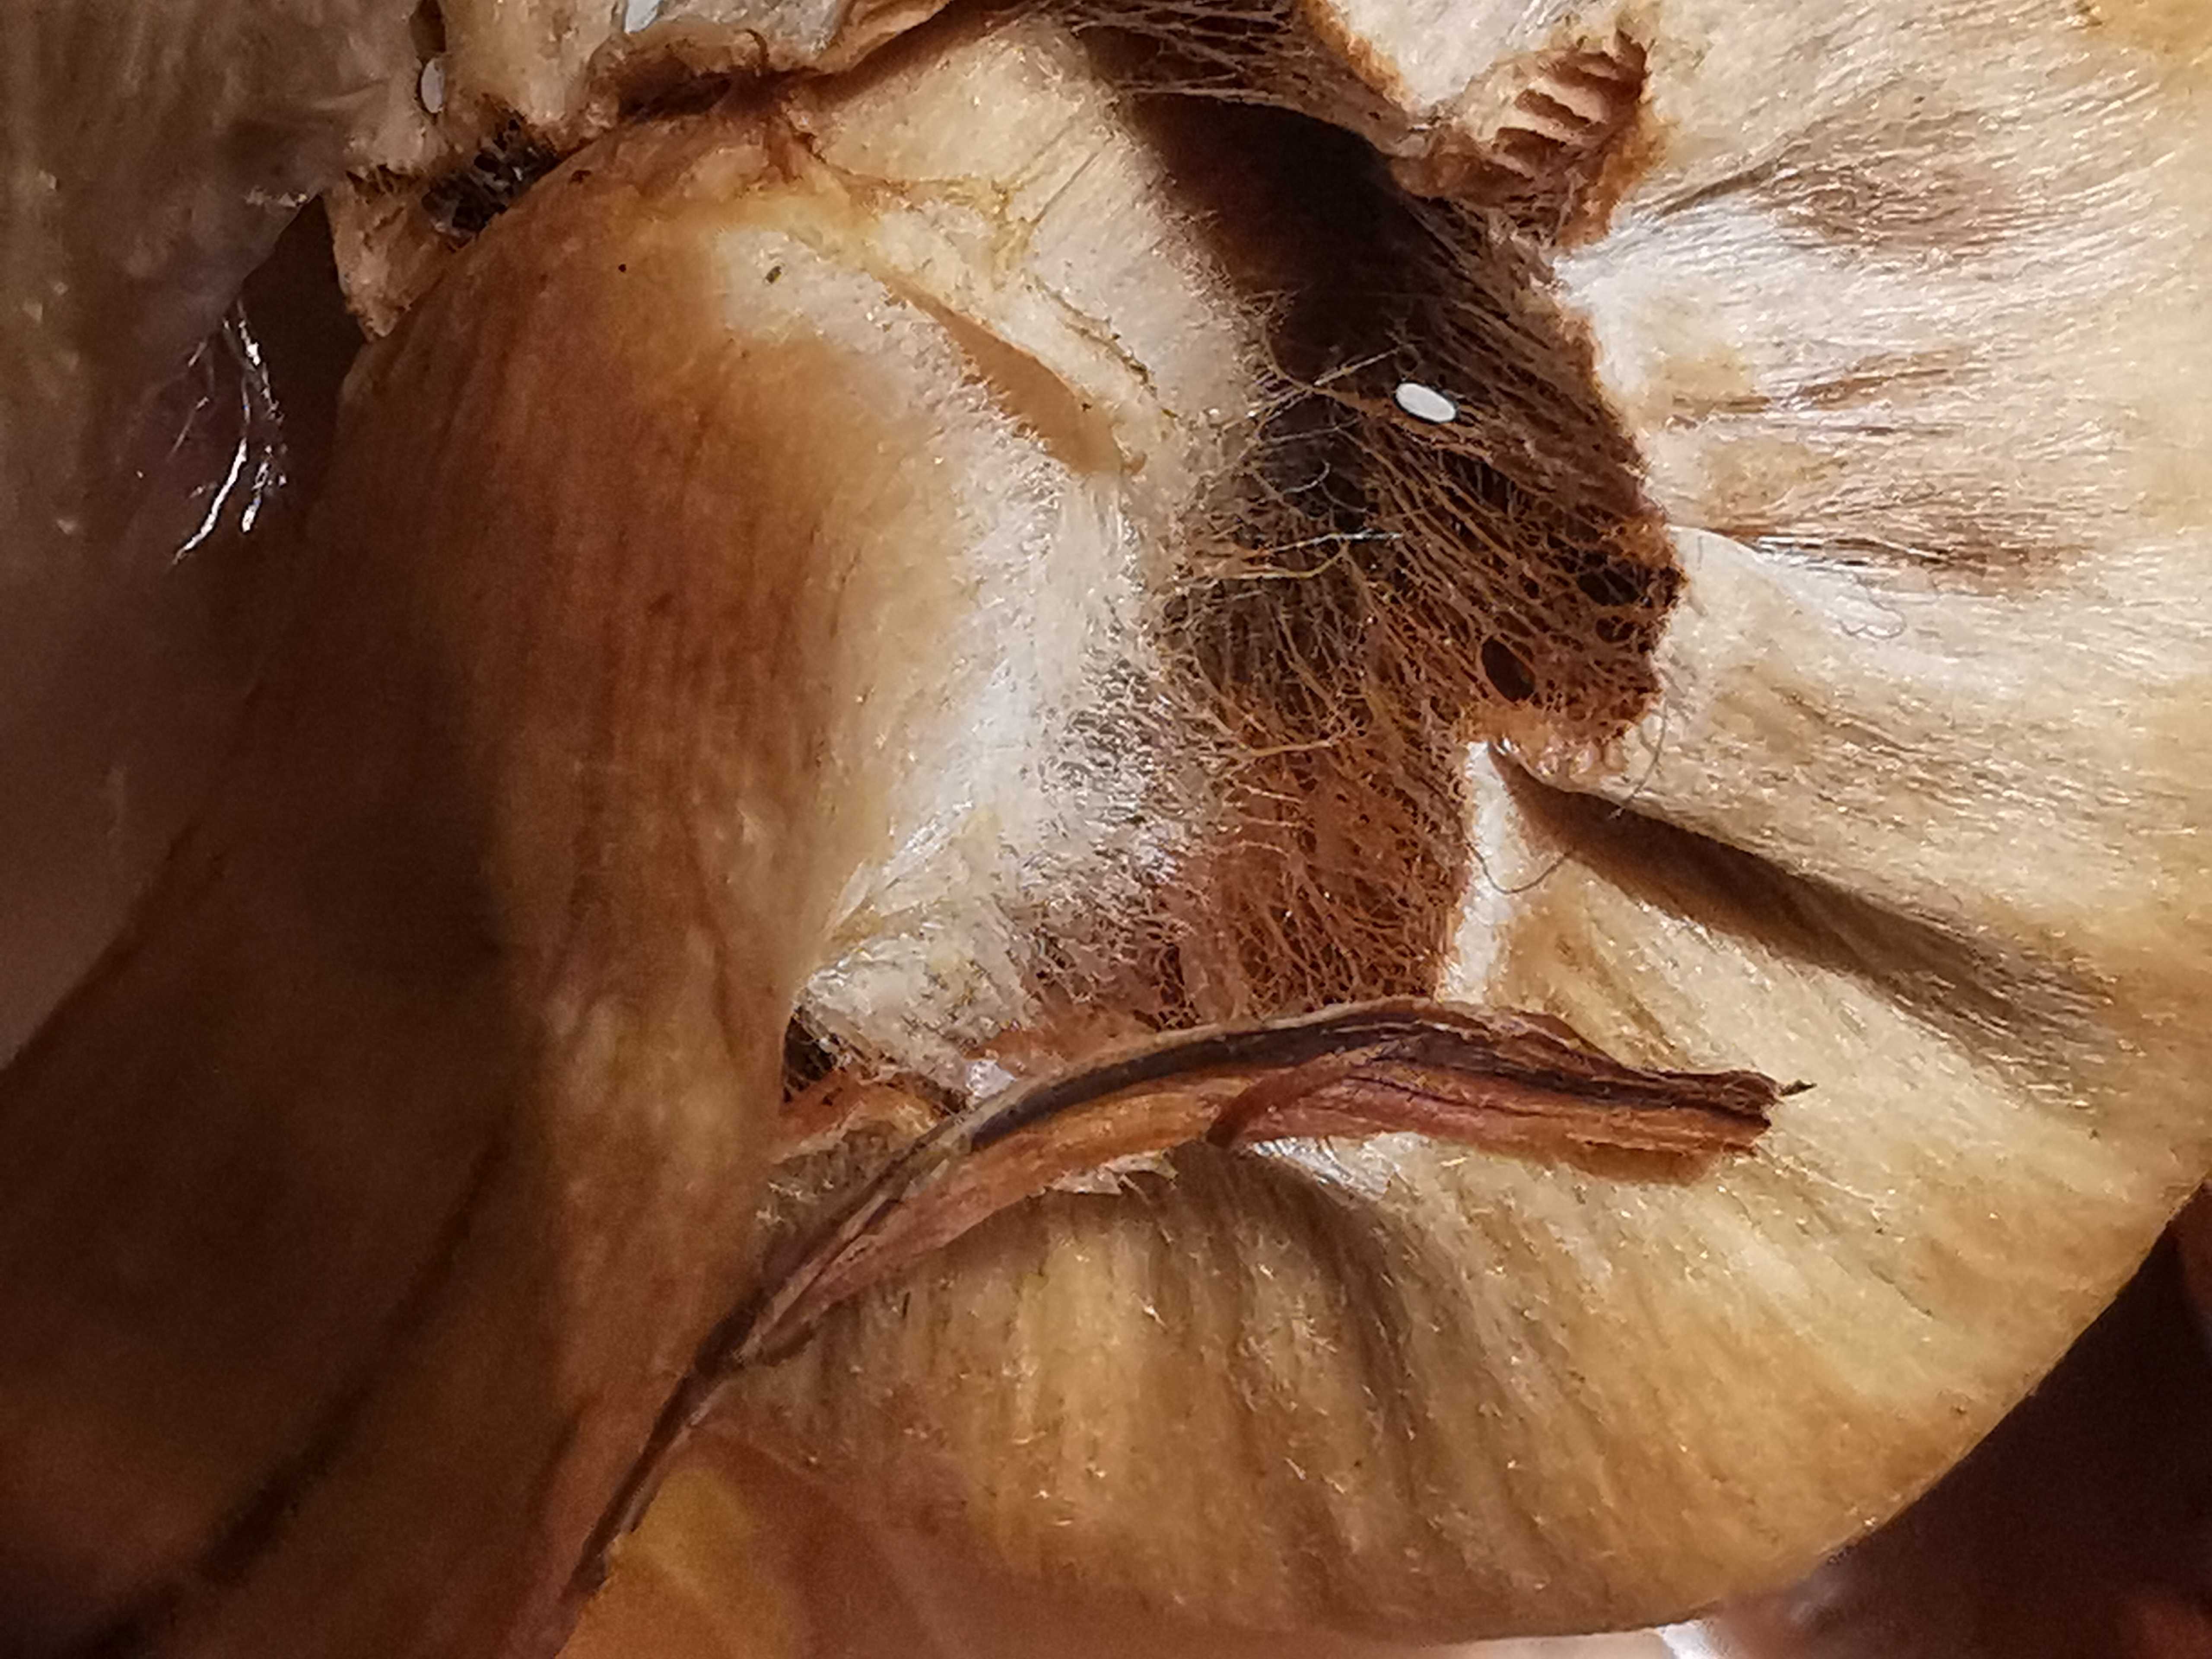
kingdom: Fungi
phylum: Basidiomycota
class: Agaricomycetes
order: Agaricales
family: Cortinariaceae
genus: Cortinarius
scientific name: Cortinarius hinnuleus
